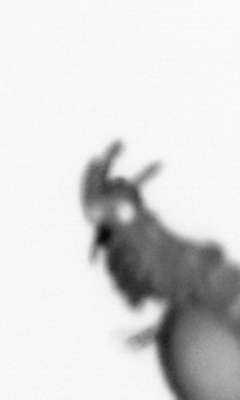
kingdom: Animalia
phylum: Annelida
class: Polychaeta
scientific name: Polychaeta
